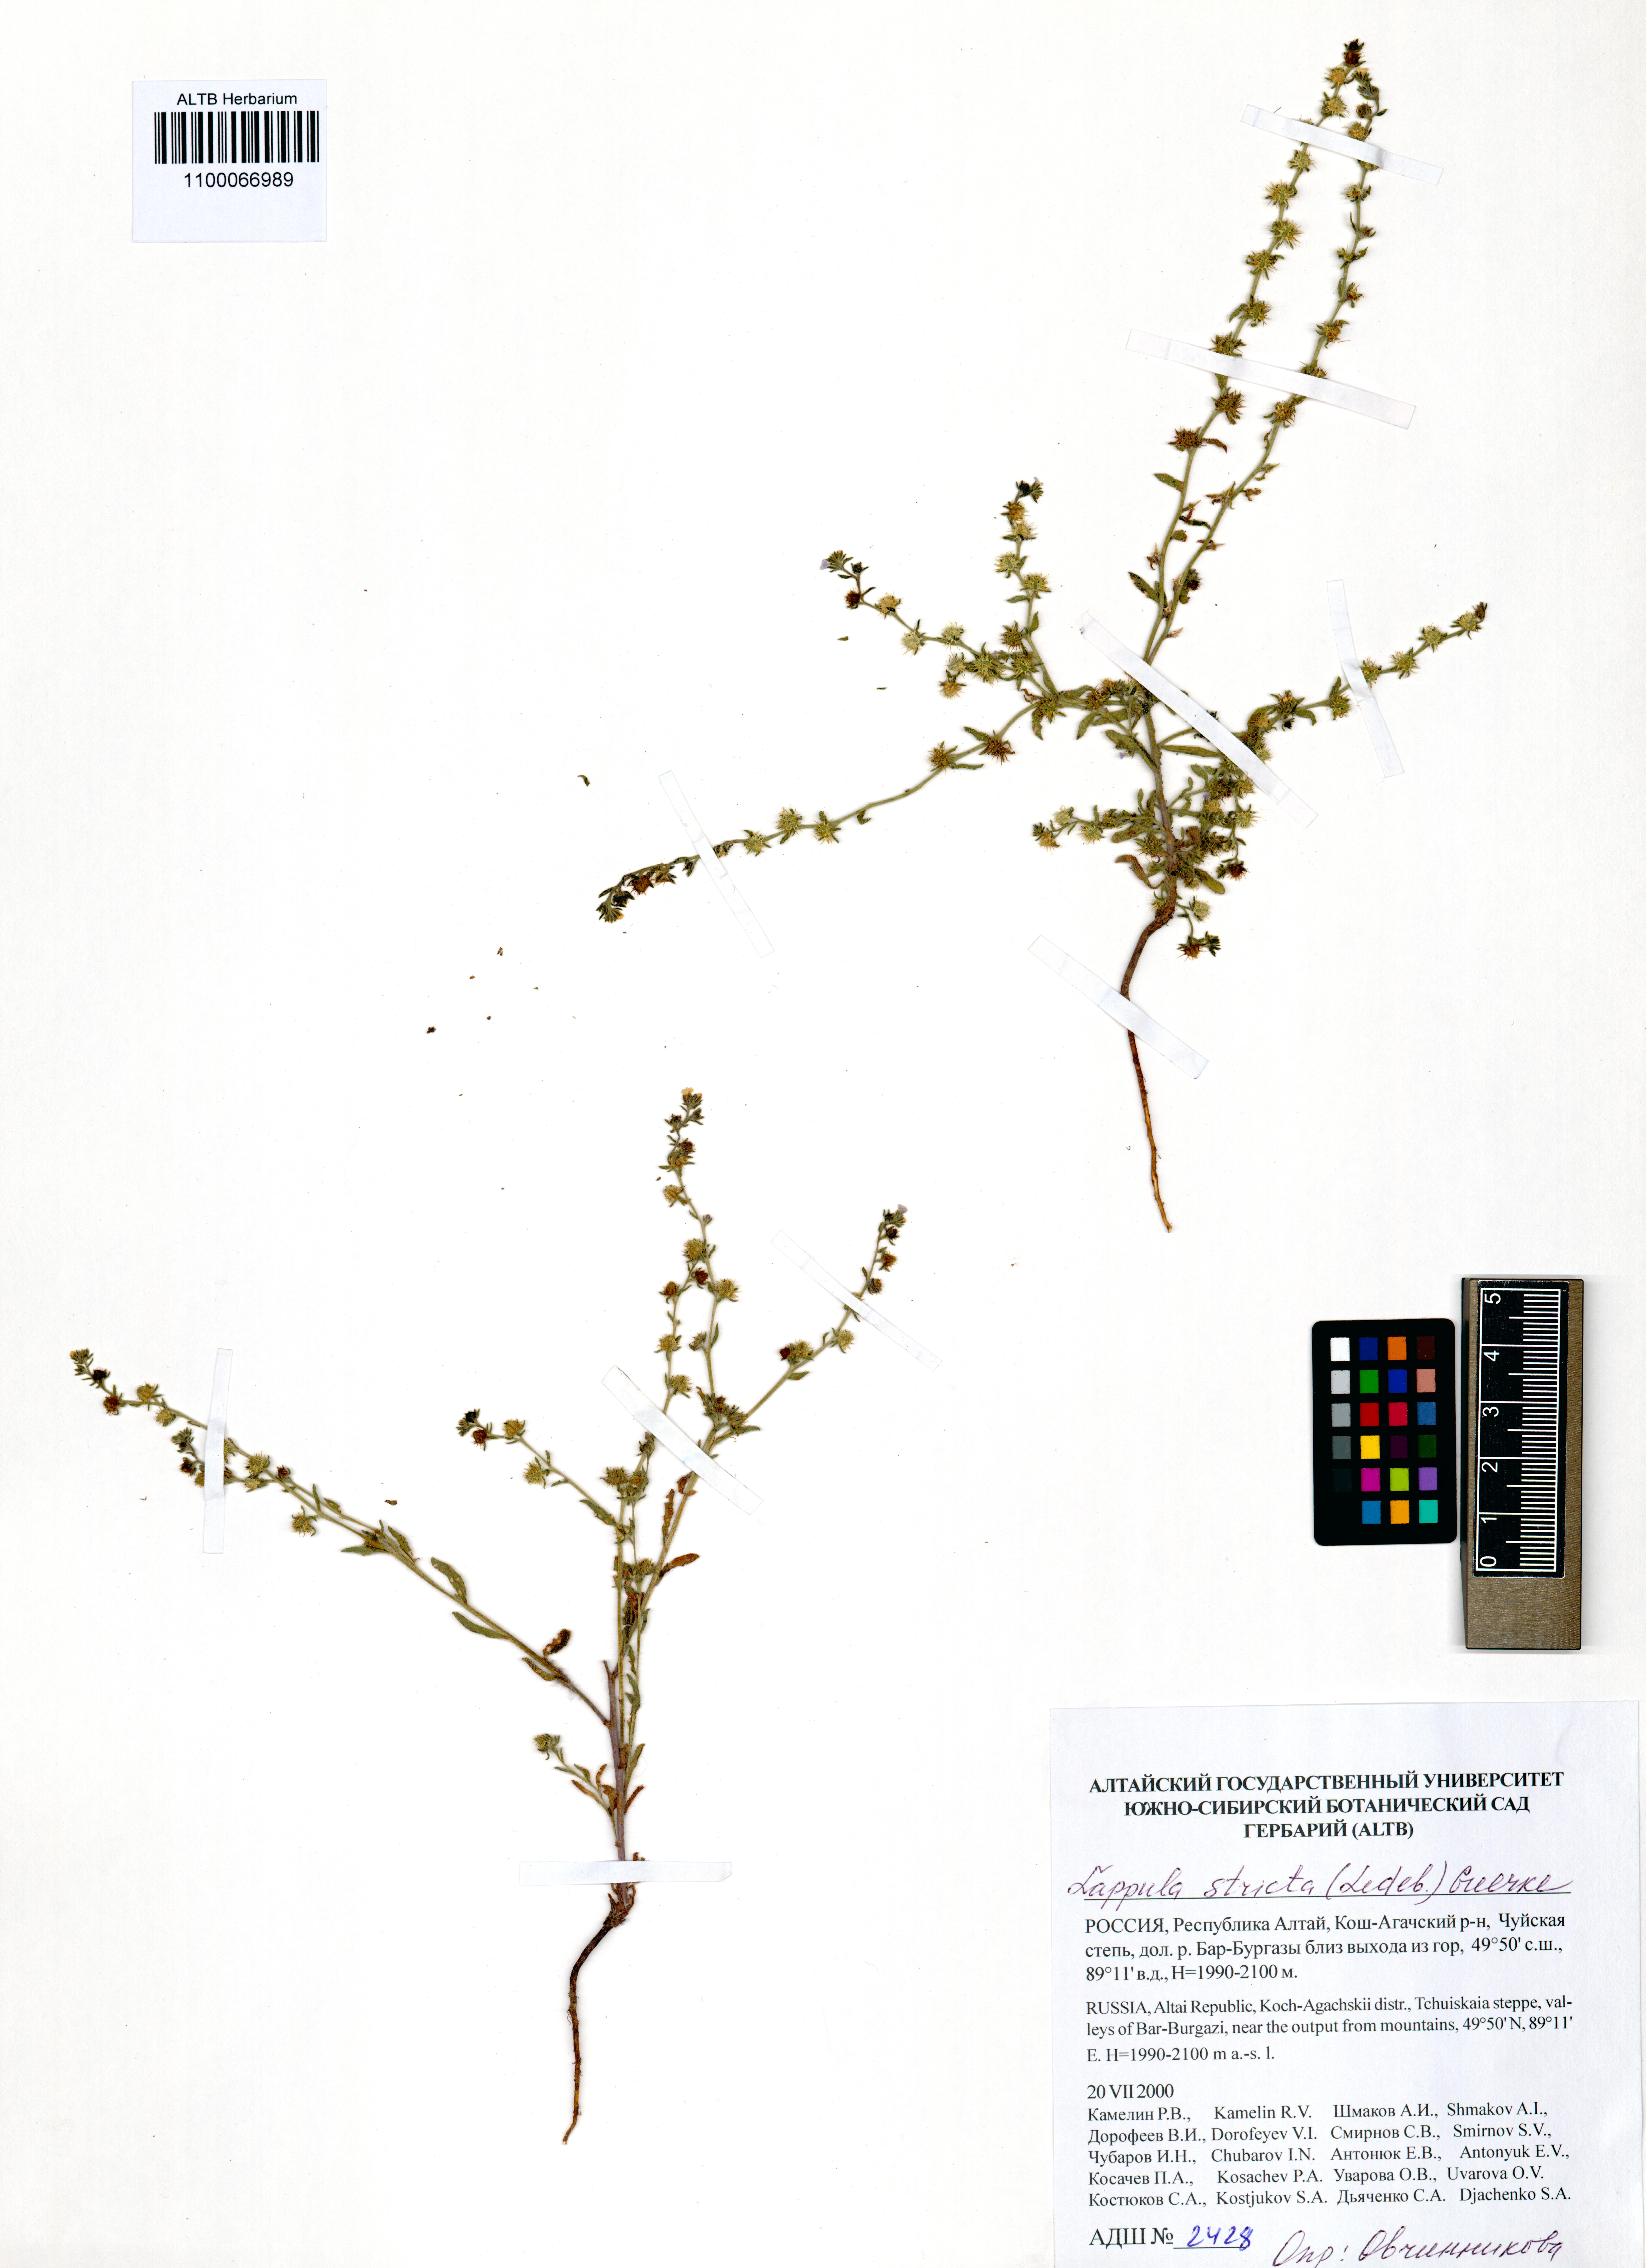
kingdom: Plantae
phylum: Tracheophyta
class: Magnoliopsida
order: Boraginales
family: Boraginaceae
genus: Lappula
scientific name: Lappula stricta
